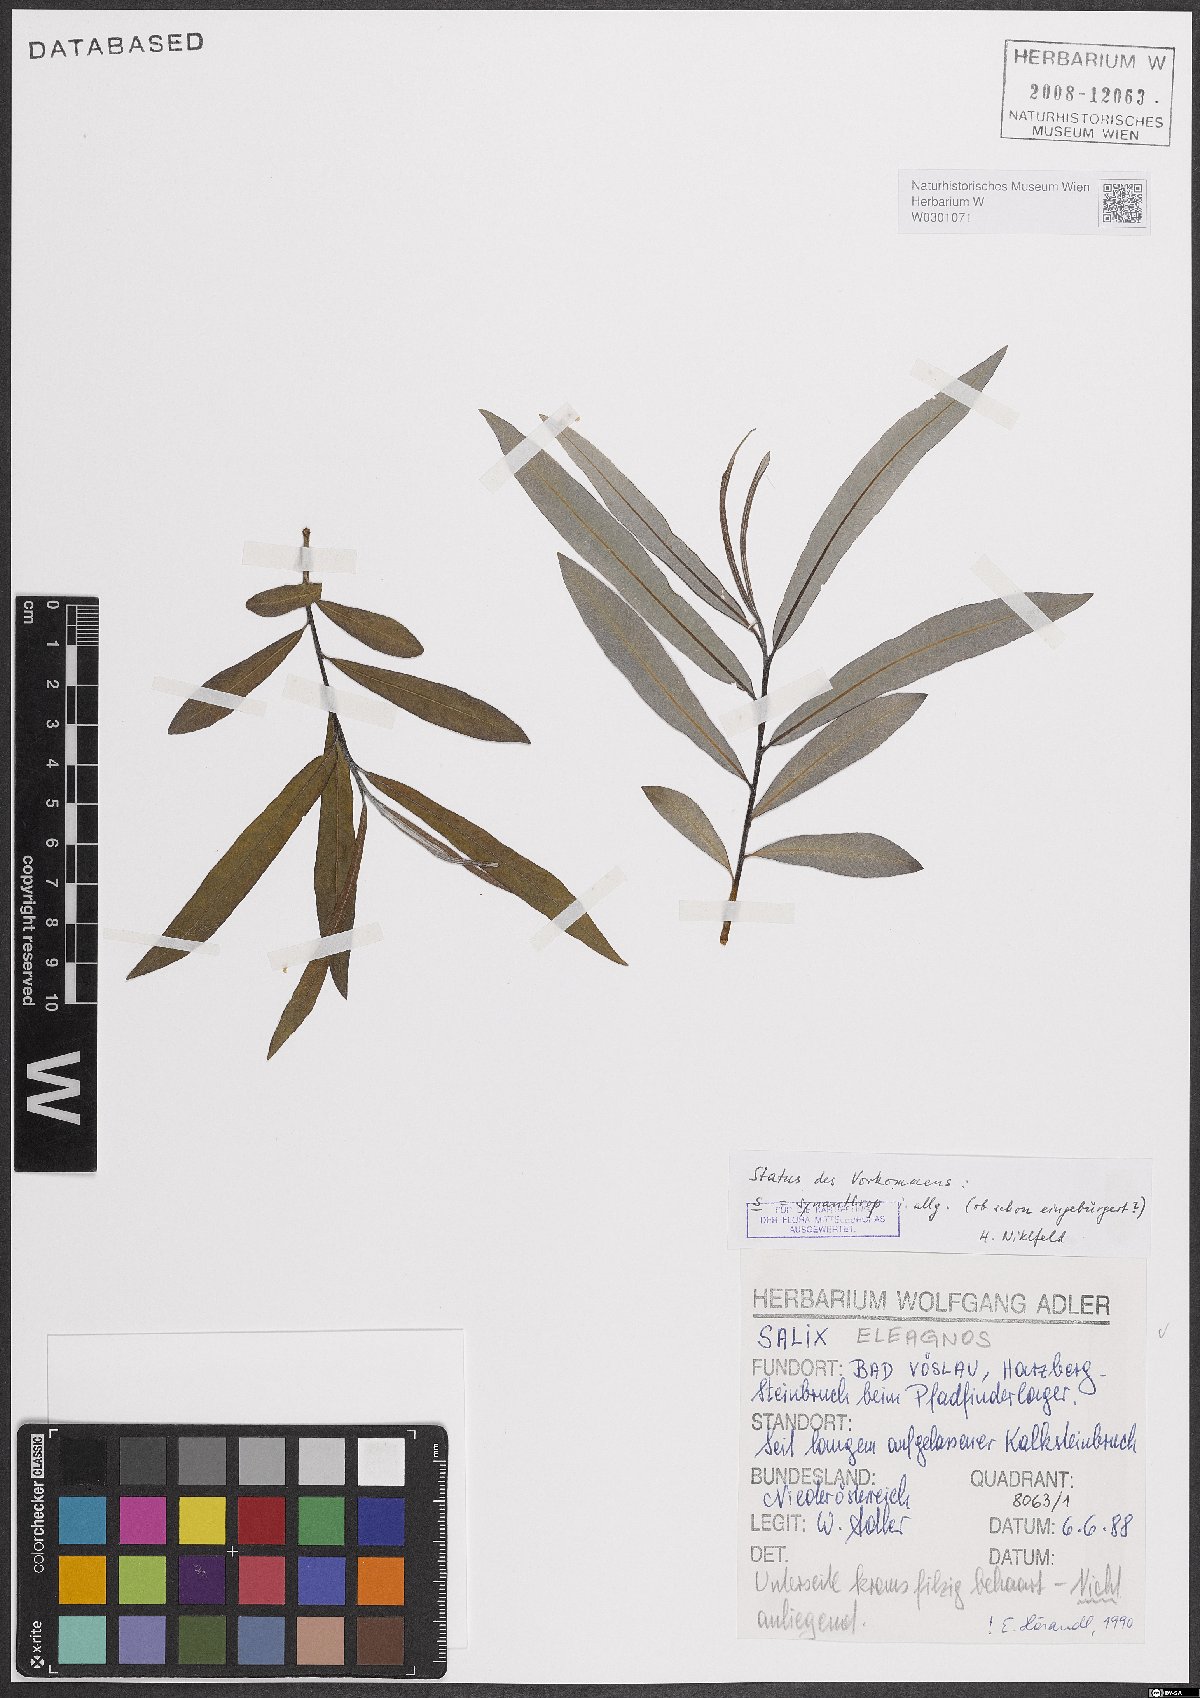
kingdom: Plantae
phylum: Tracheophyta
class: Magnoliopsida
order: Malpighiales
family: Salicaceae
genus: Salix
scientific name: Salix eleagnos
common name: Elaeagnus willow
